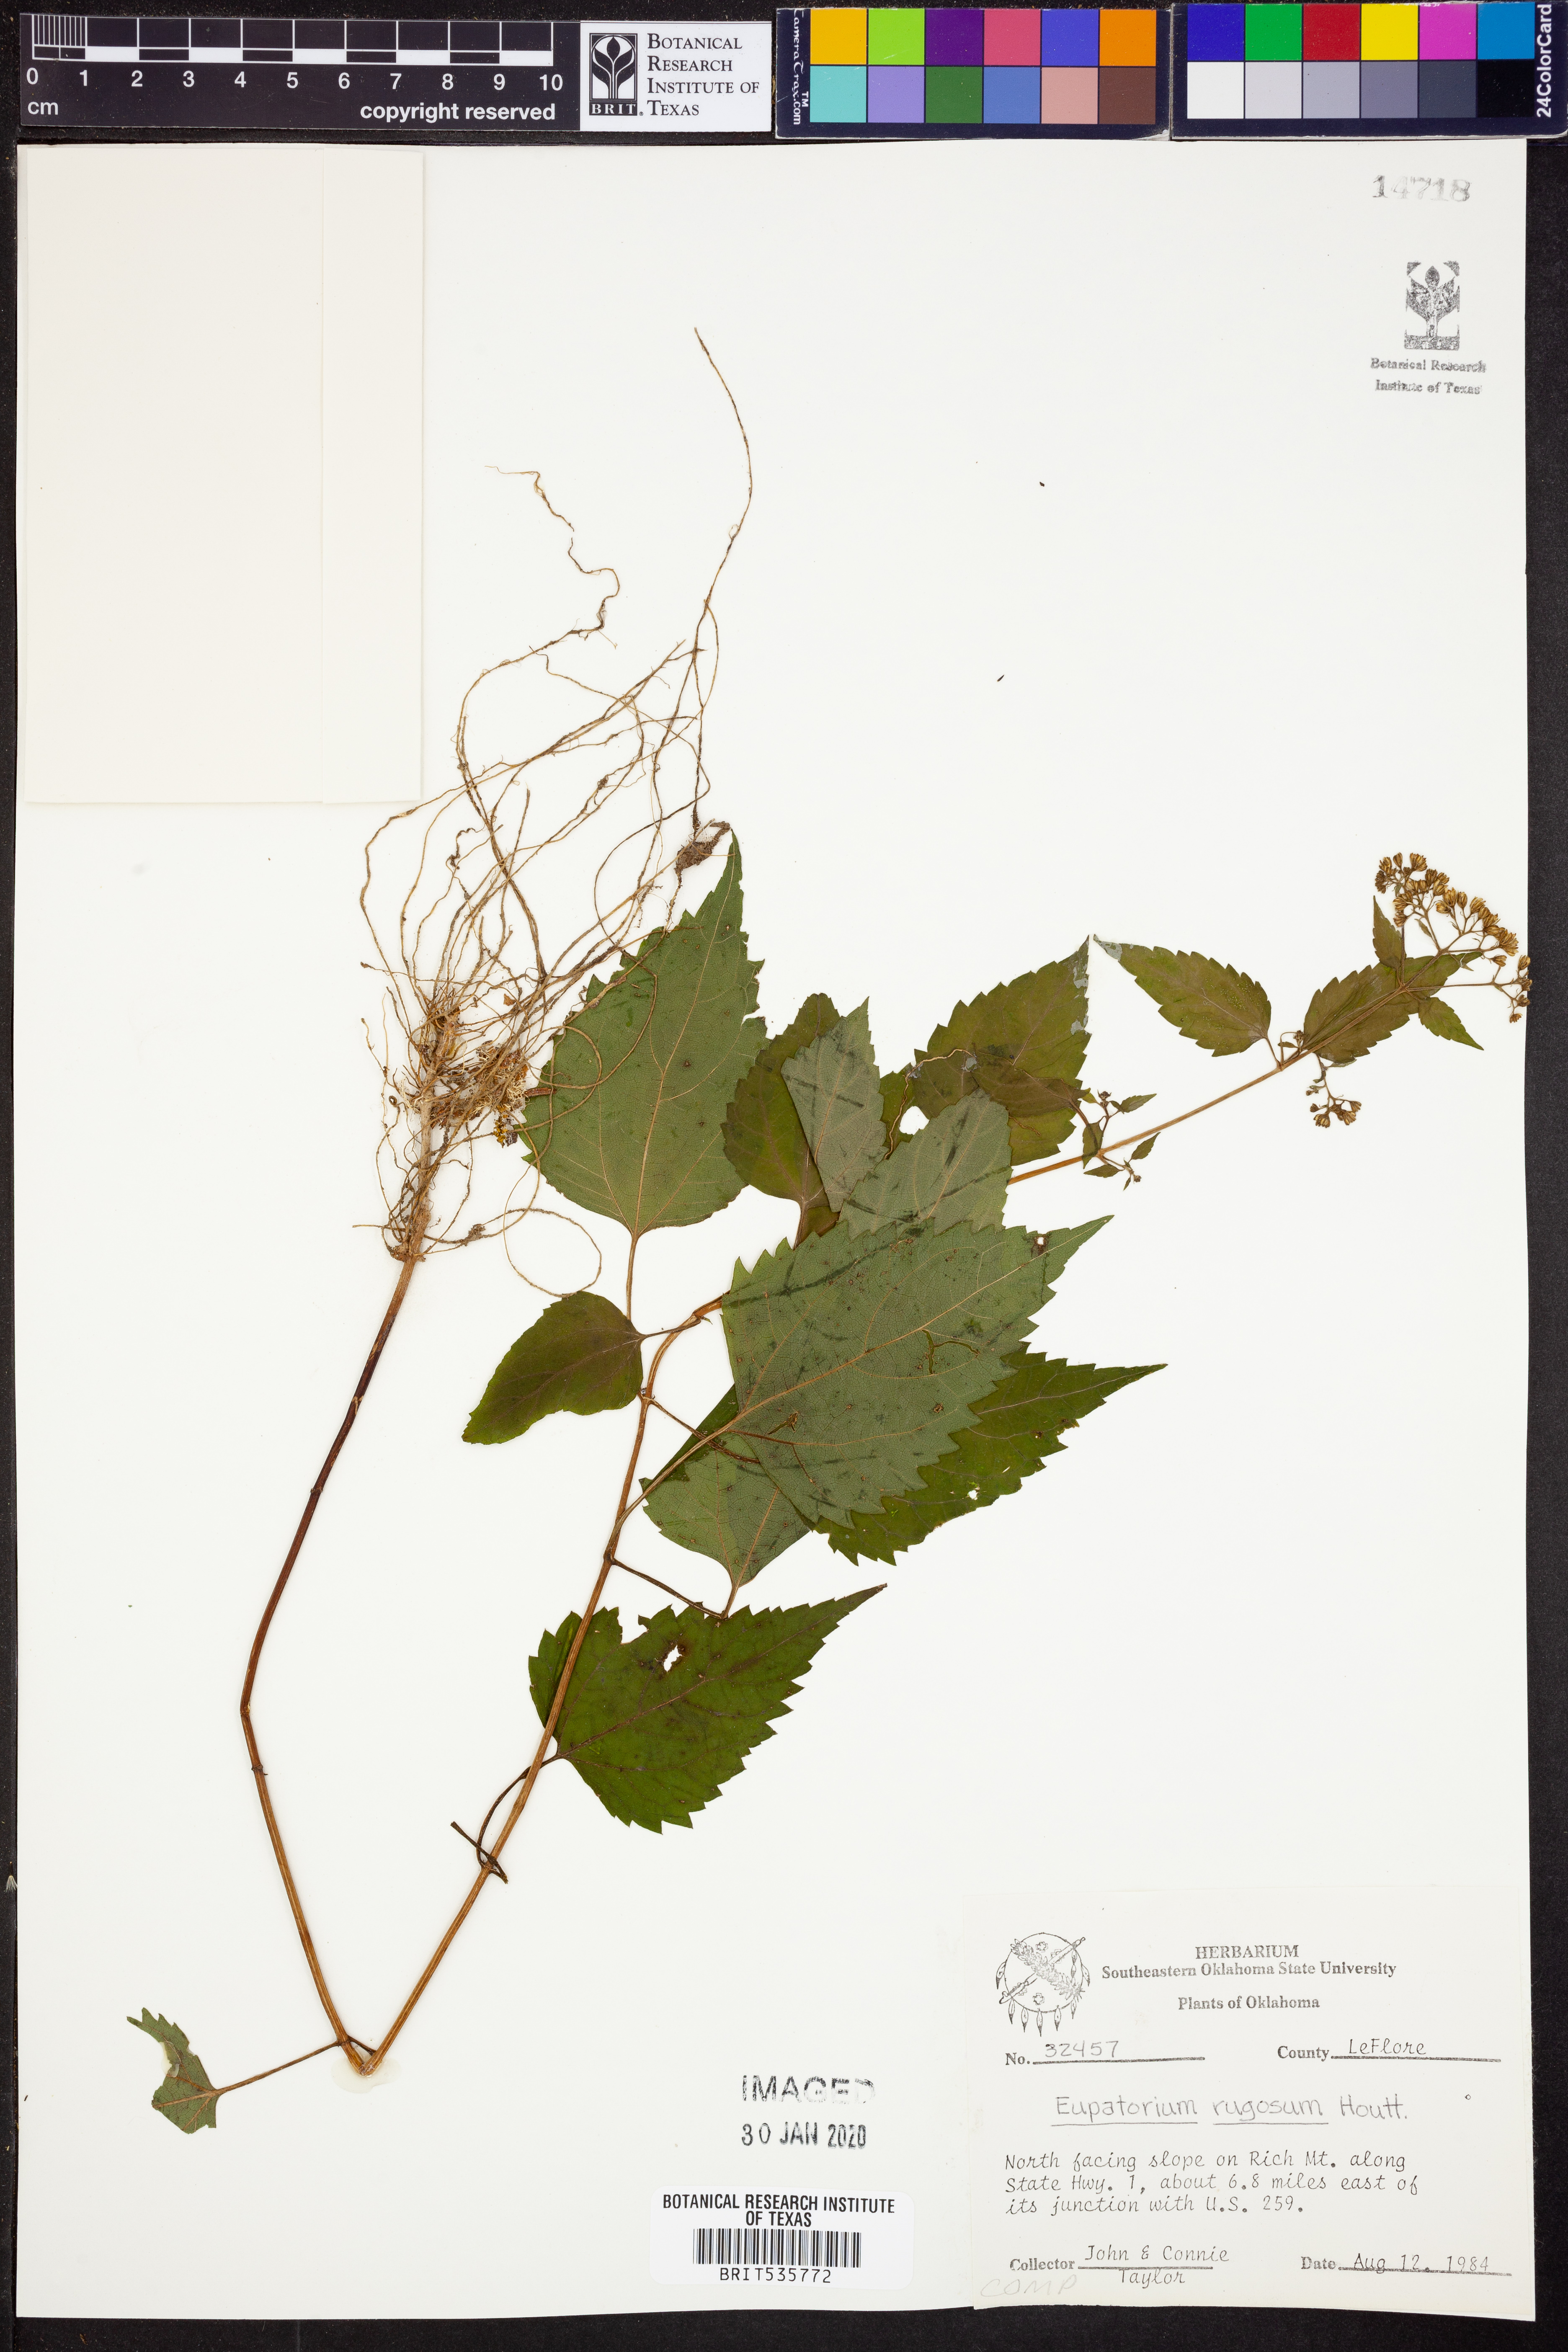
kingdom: Plantae
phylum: Tracheophyta
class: Magnoliopsida
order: Asterales
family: Asteraceae
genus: Cronquistianthus
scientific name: Cronquistianthus bulliferus
